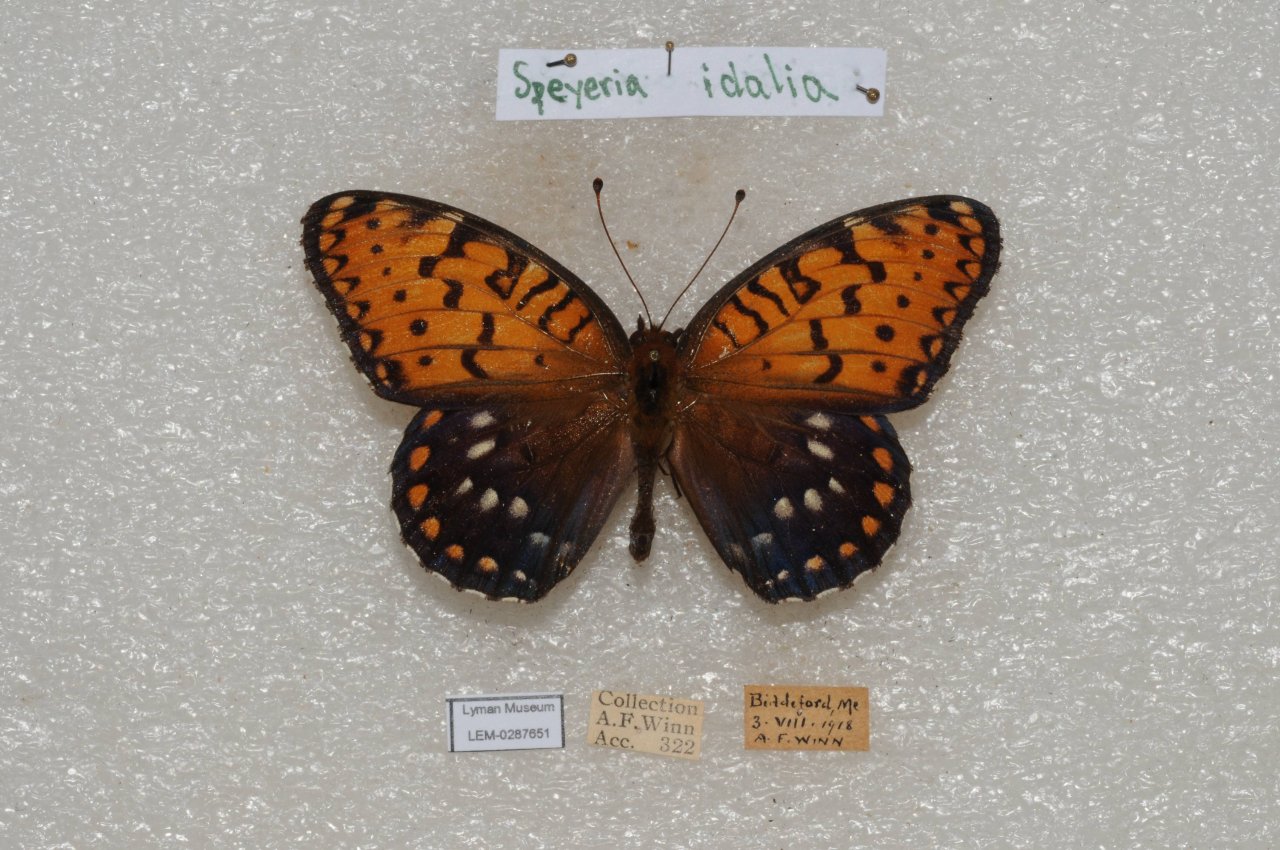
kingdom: Animalia
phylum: Arthropoda
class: Insecta
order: Lepidoptera
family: Nymphalidae
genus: Speyeria
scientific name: Speyeria idalia
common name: Regal Fritillary
